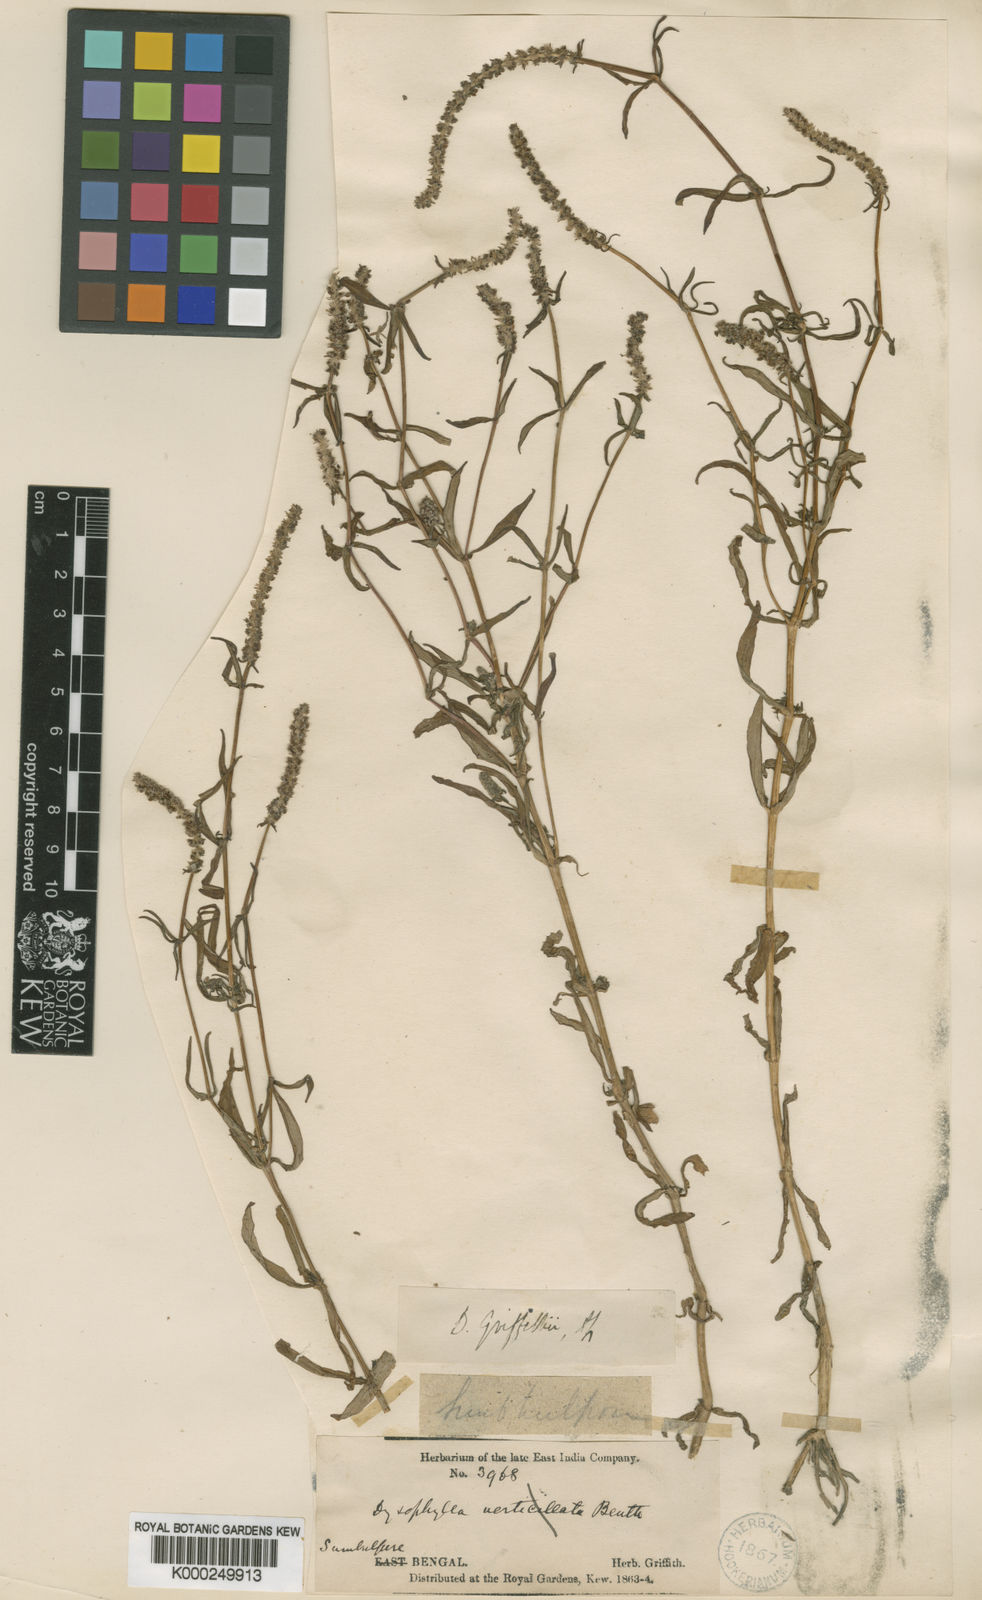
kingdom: Plantae
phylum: Tracheophyta
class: Magnoliopsida
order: Lamiales
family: Lamiaceae
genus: Pogostemon
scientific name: Pogostemon pressii
